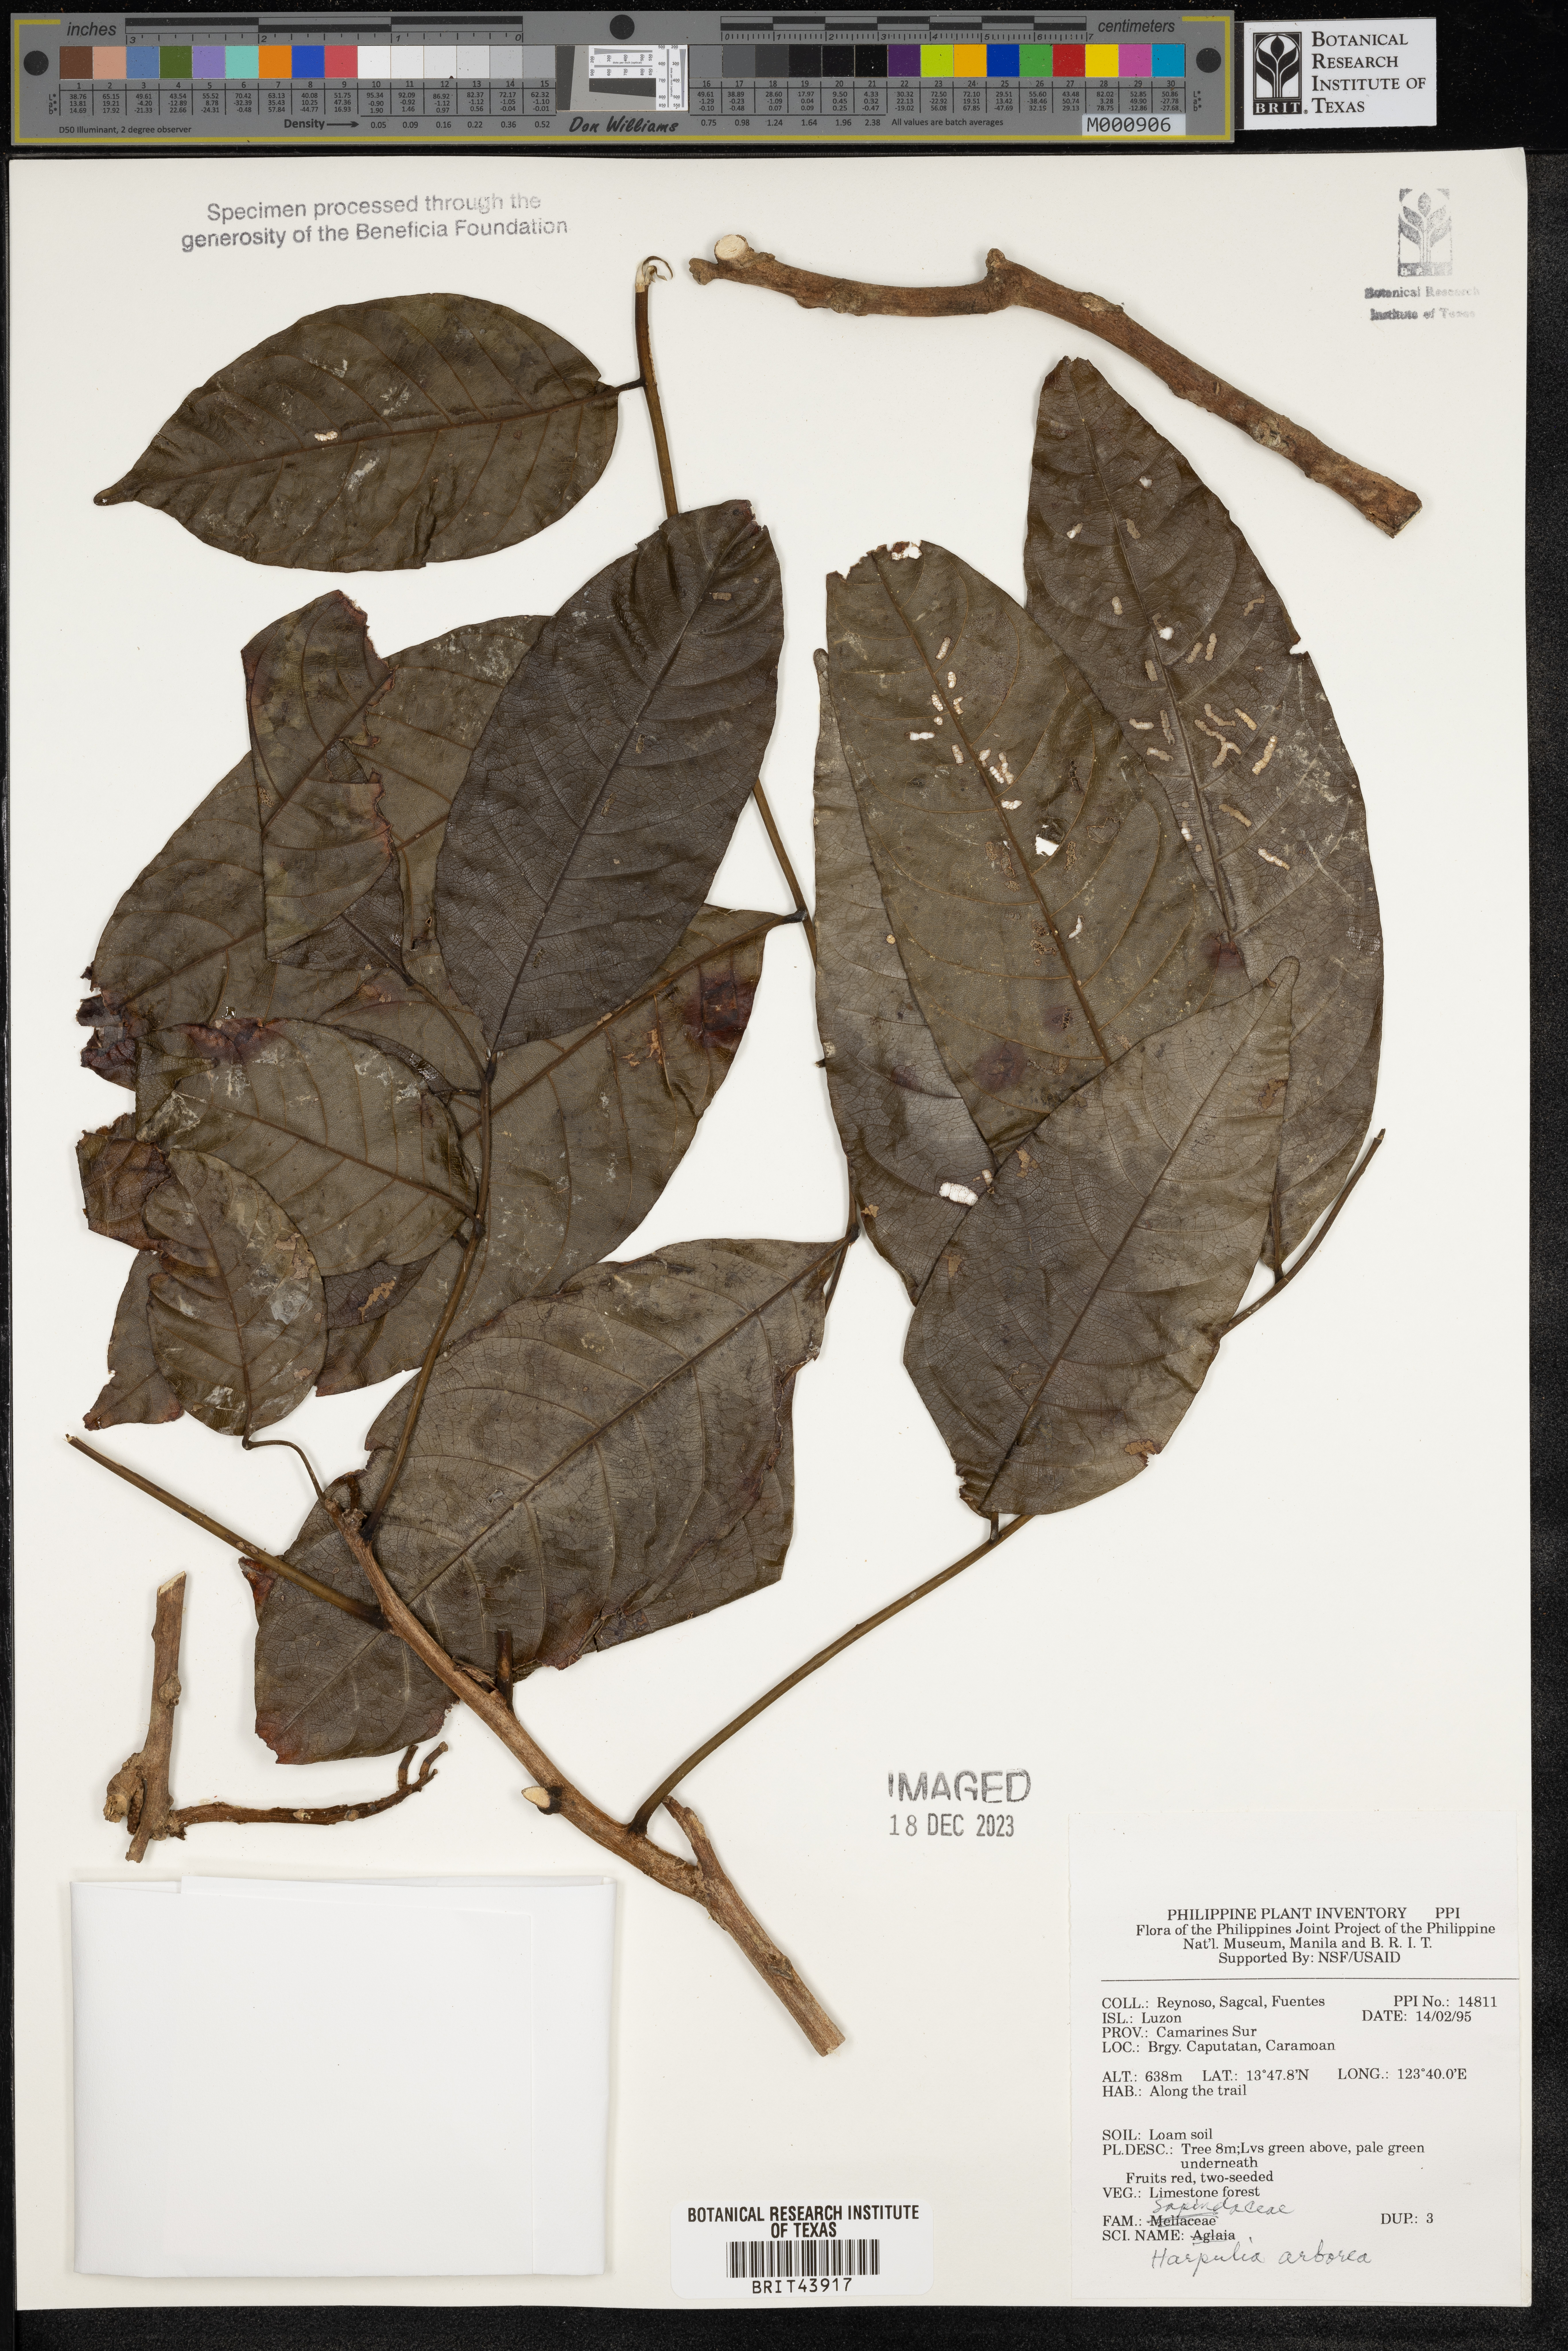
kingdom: Plantae
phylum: Tracheophyta
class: Magnoliopsida
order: Sapindales
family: Sapindaceae
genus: Harpullia
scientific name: Harpullia arborea
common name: Tulip-wood tree
